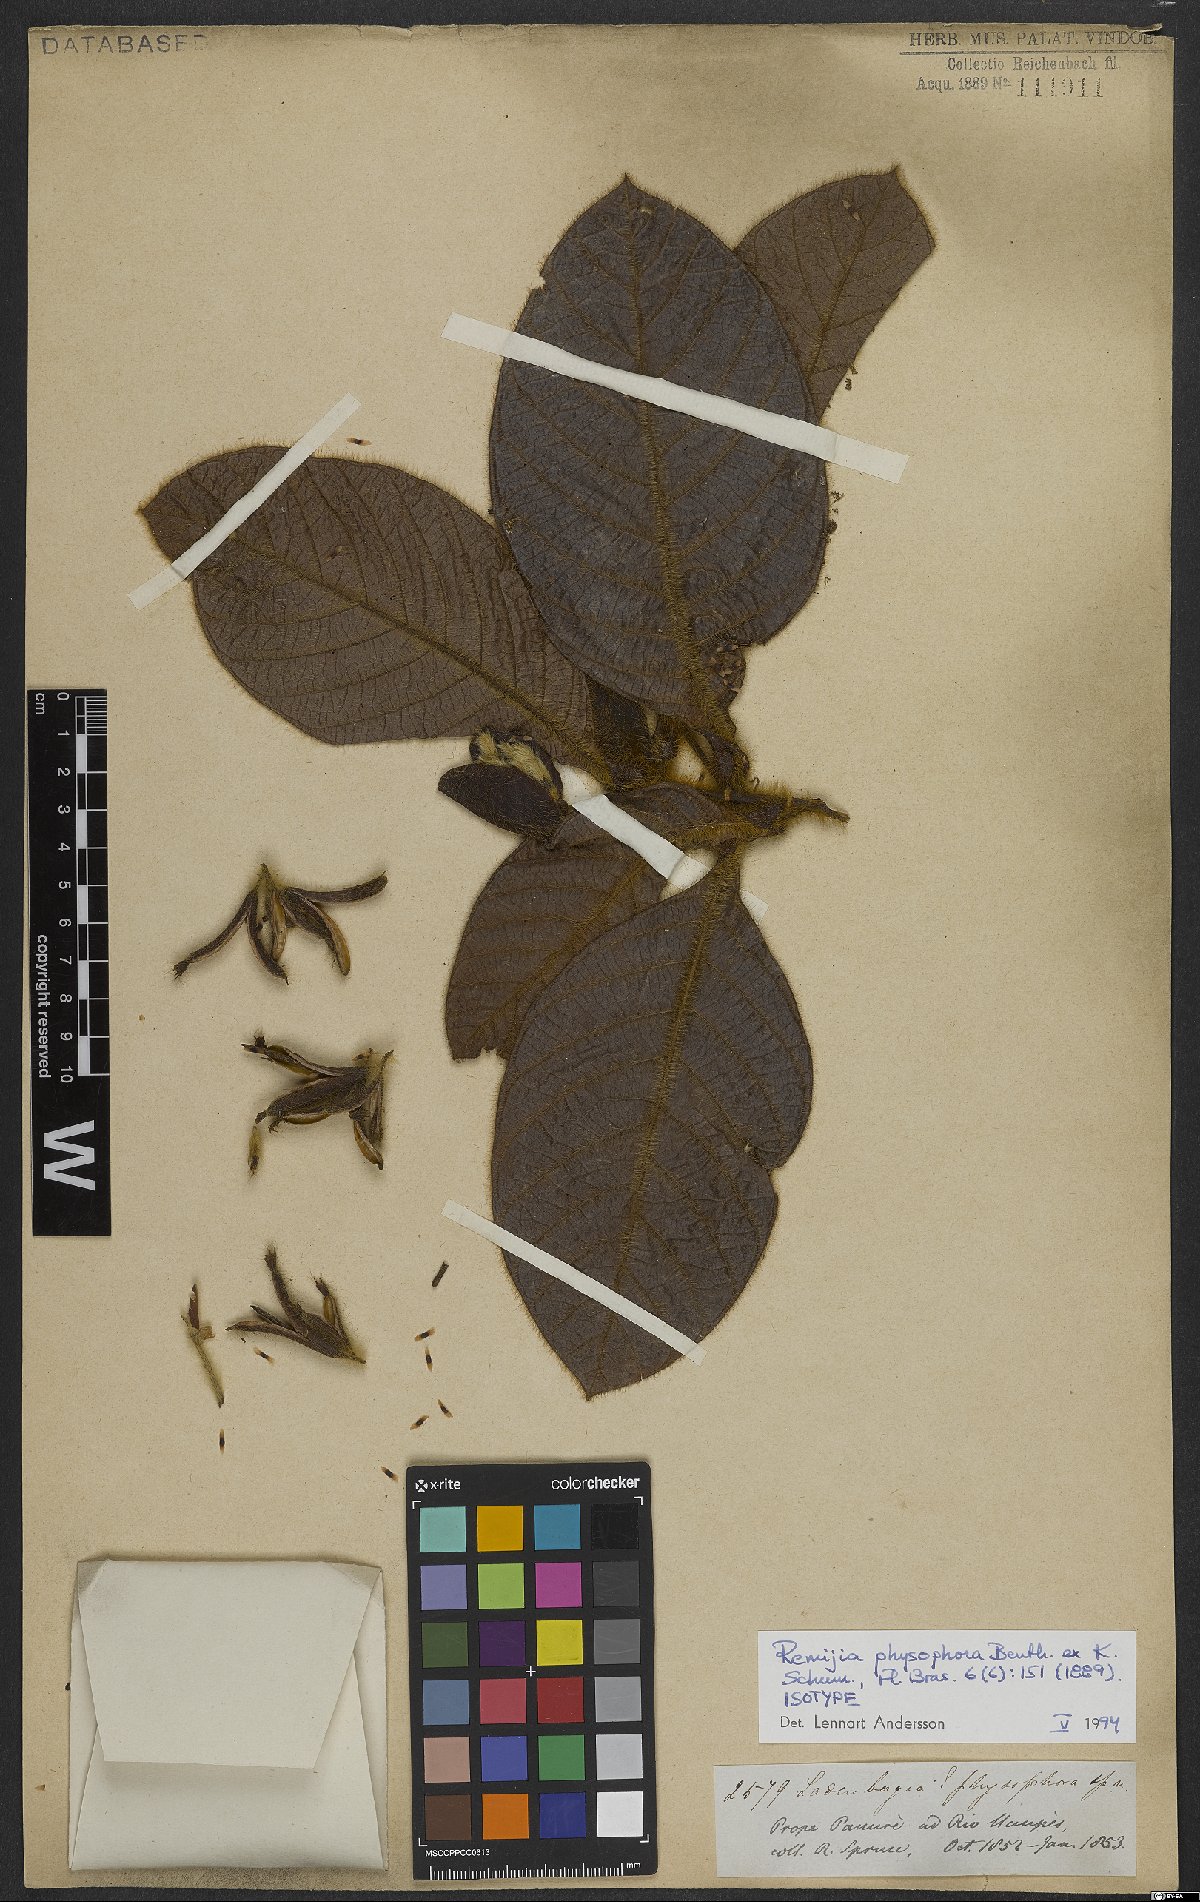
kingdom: Plantae
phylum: Tracheophyta
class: Magnoliopsida
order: Gentianales
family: Rubiaceae
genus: Remijia
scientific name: Remijia physophora
